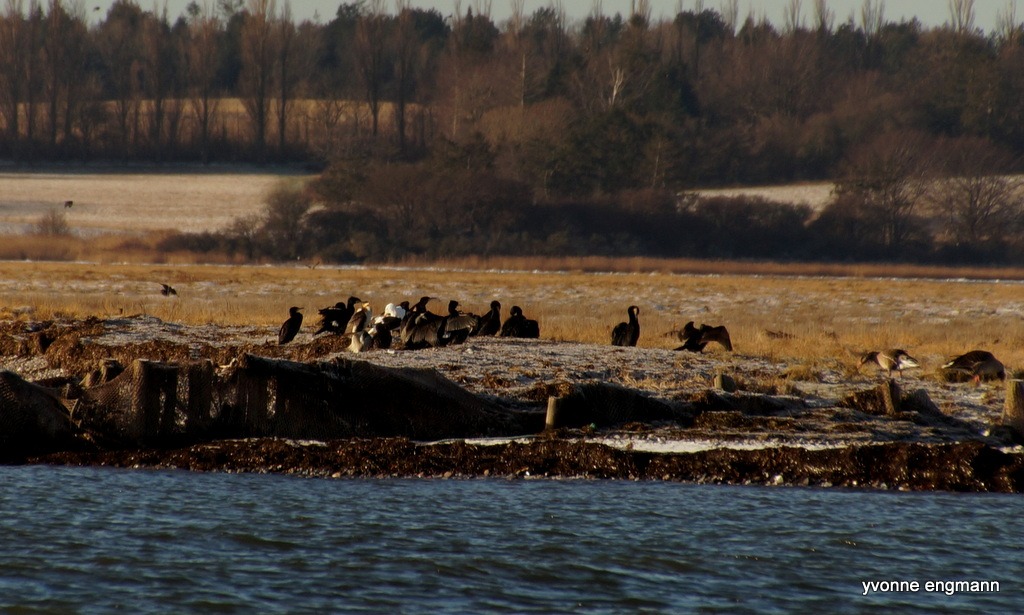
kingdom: Animalia
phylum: Chordata
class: Aves
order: Suliformes
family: Phalacrocoracidae
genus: Phalacrocorax
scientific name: Phalacrocorax carbo
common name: Skarv
